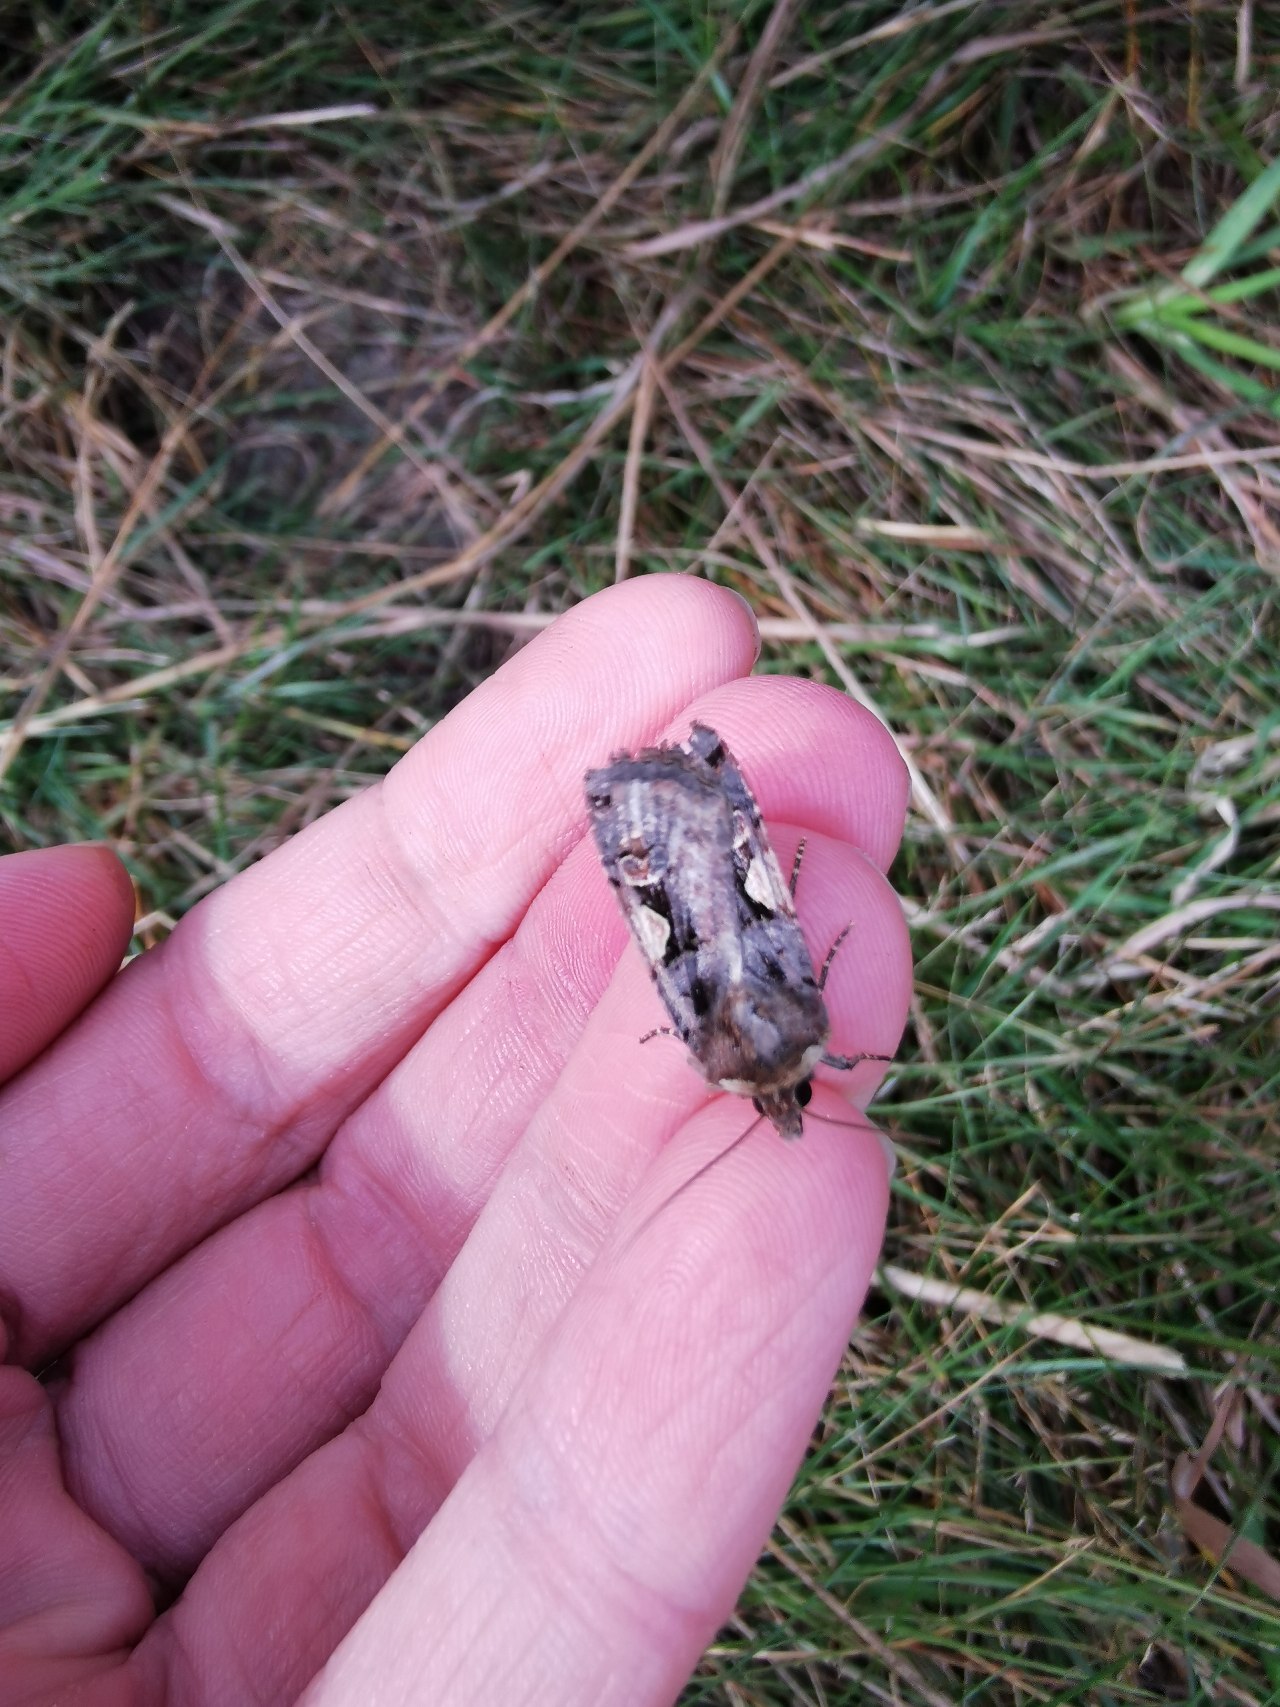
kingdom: Animalia
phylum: Arthropoda
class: Insecta
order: Lepidoptera
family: Noctuidae
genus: Xestia
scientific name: Xestia c-nigrum
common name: Det sorte c
